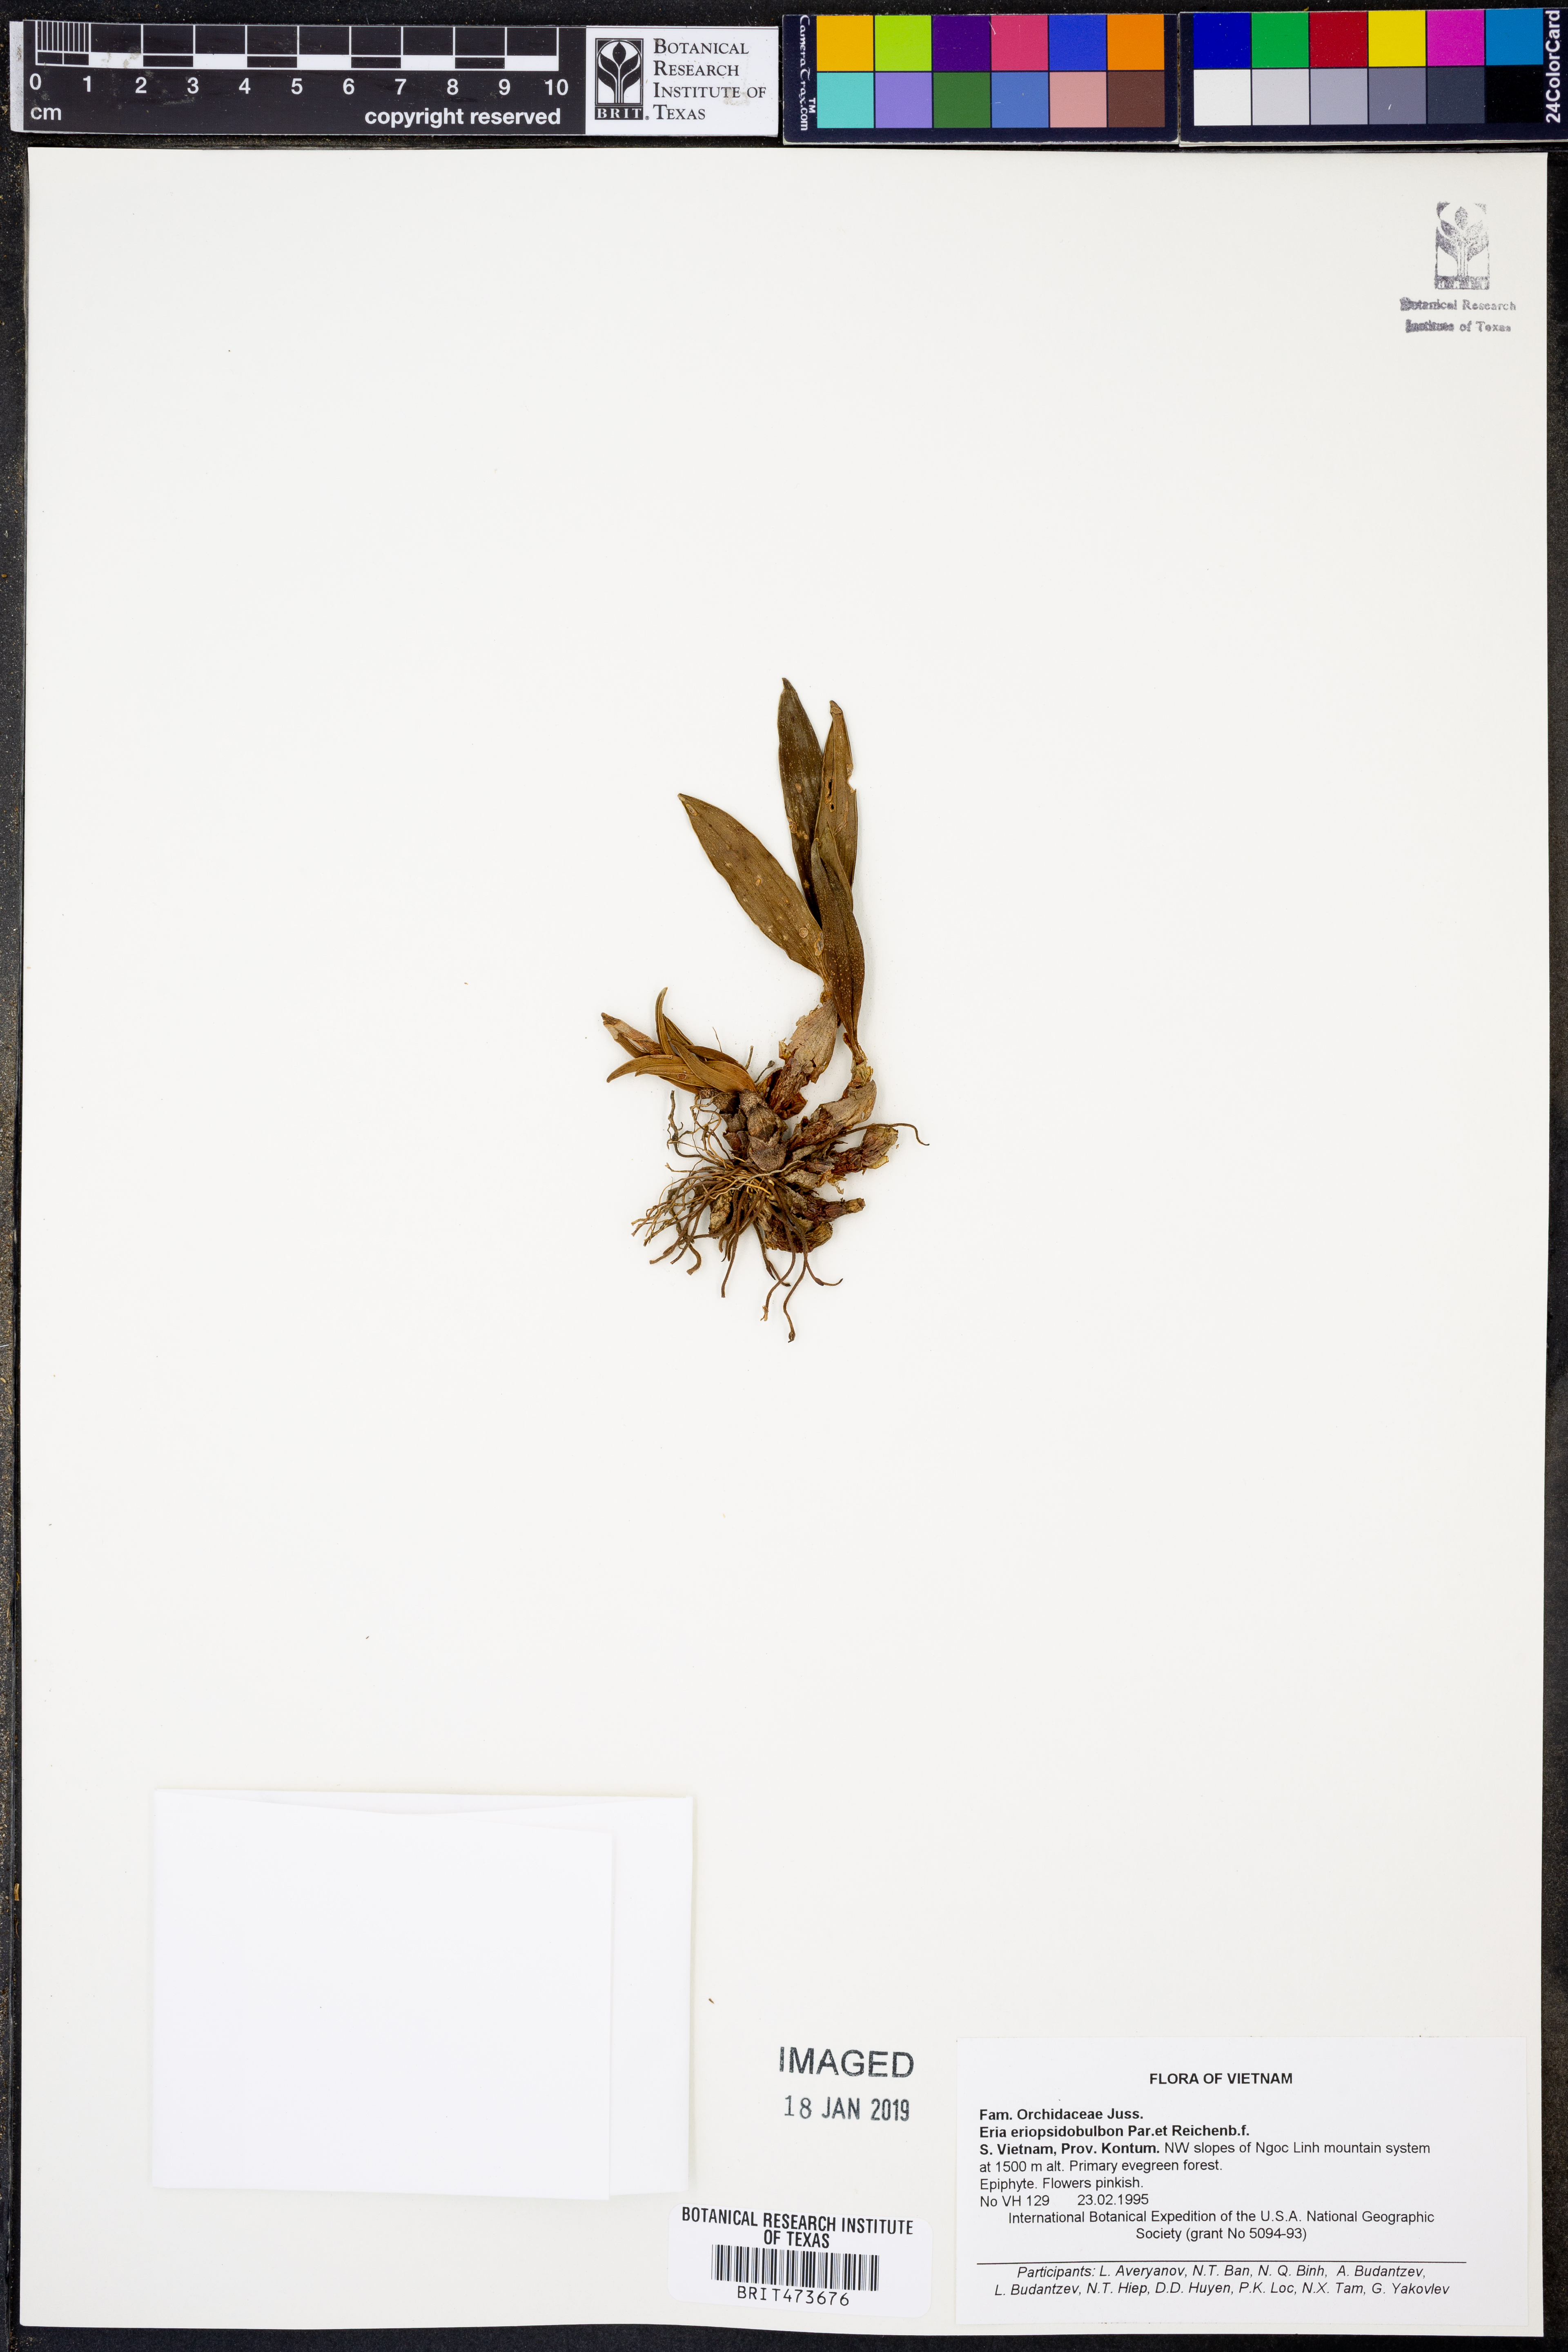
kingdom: Plantae
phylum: Tracheophyta
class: Liliopsida
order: Asparagales
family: Orchidaceae
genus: Pinalia
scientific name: Pinalia eriopsidobulbon
